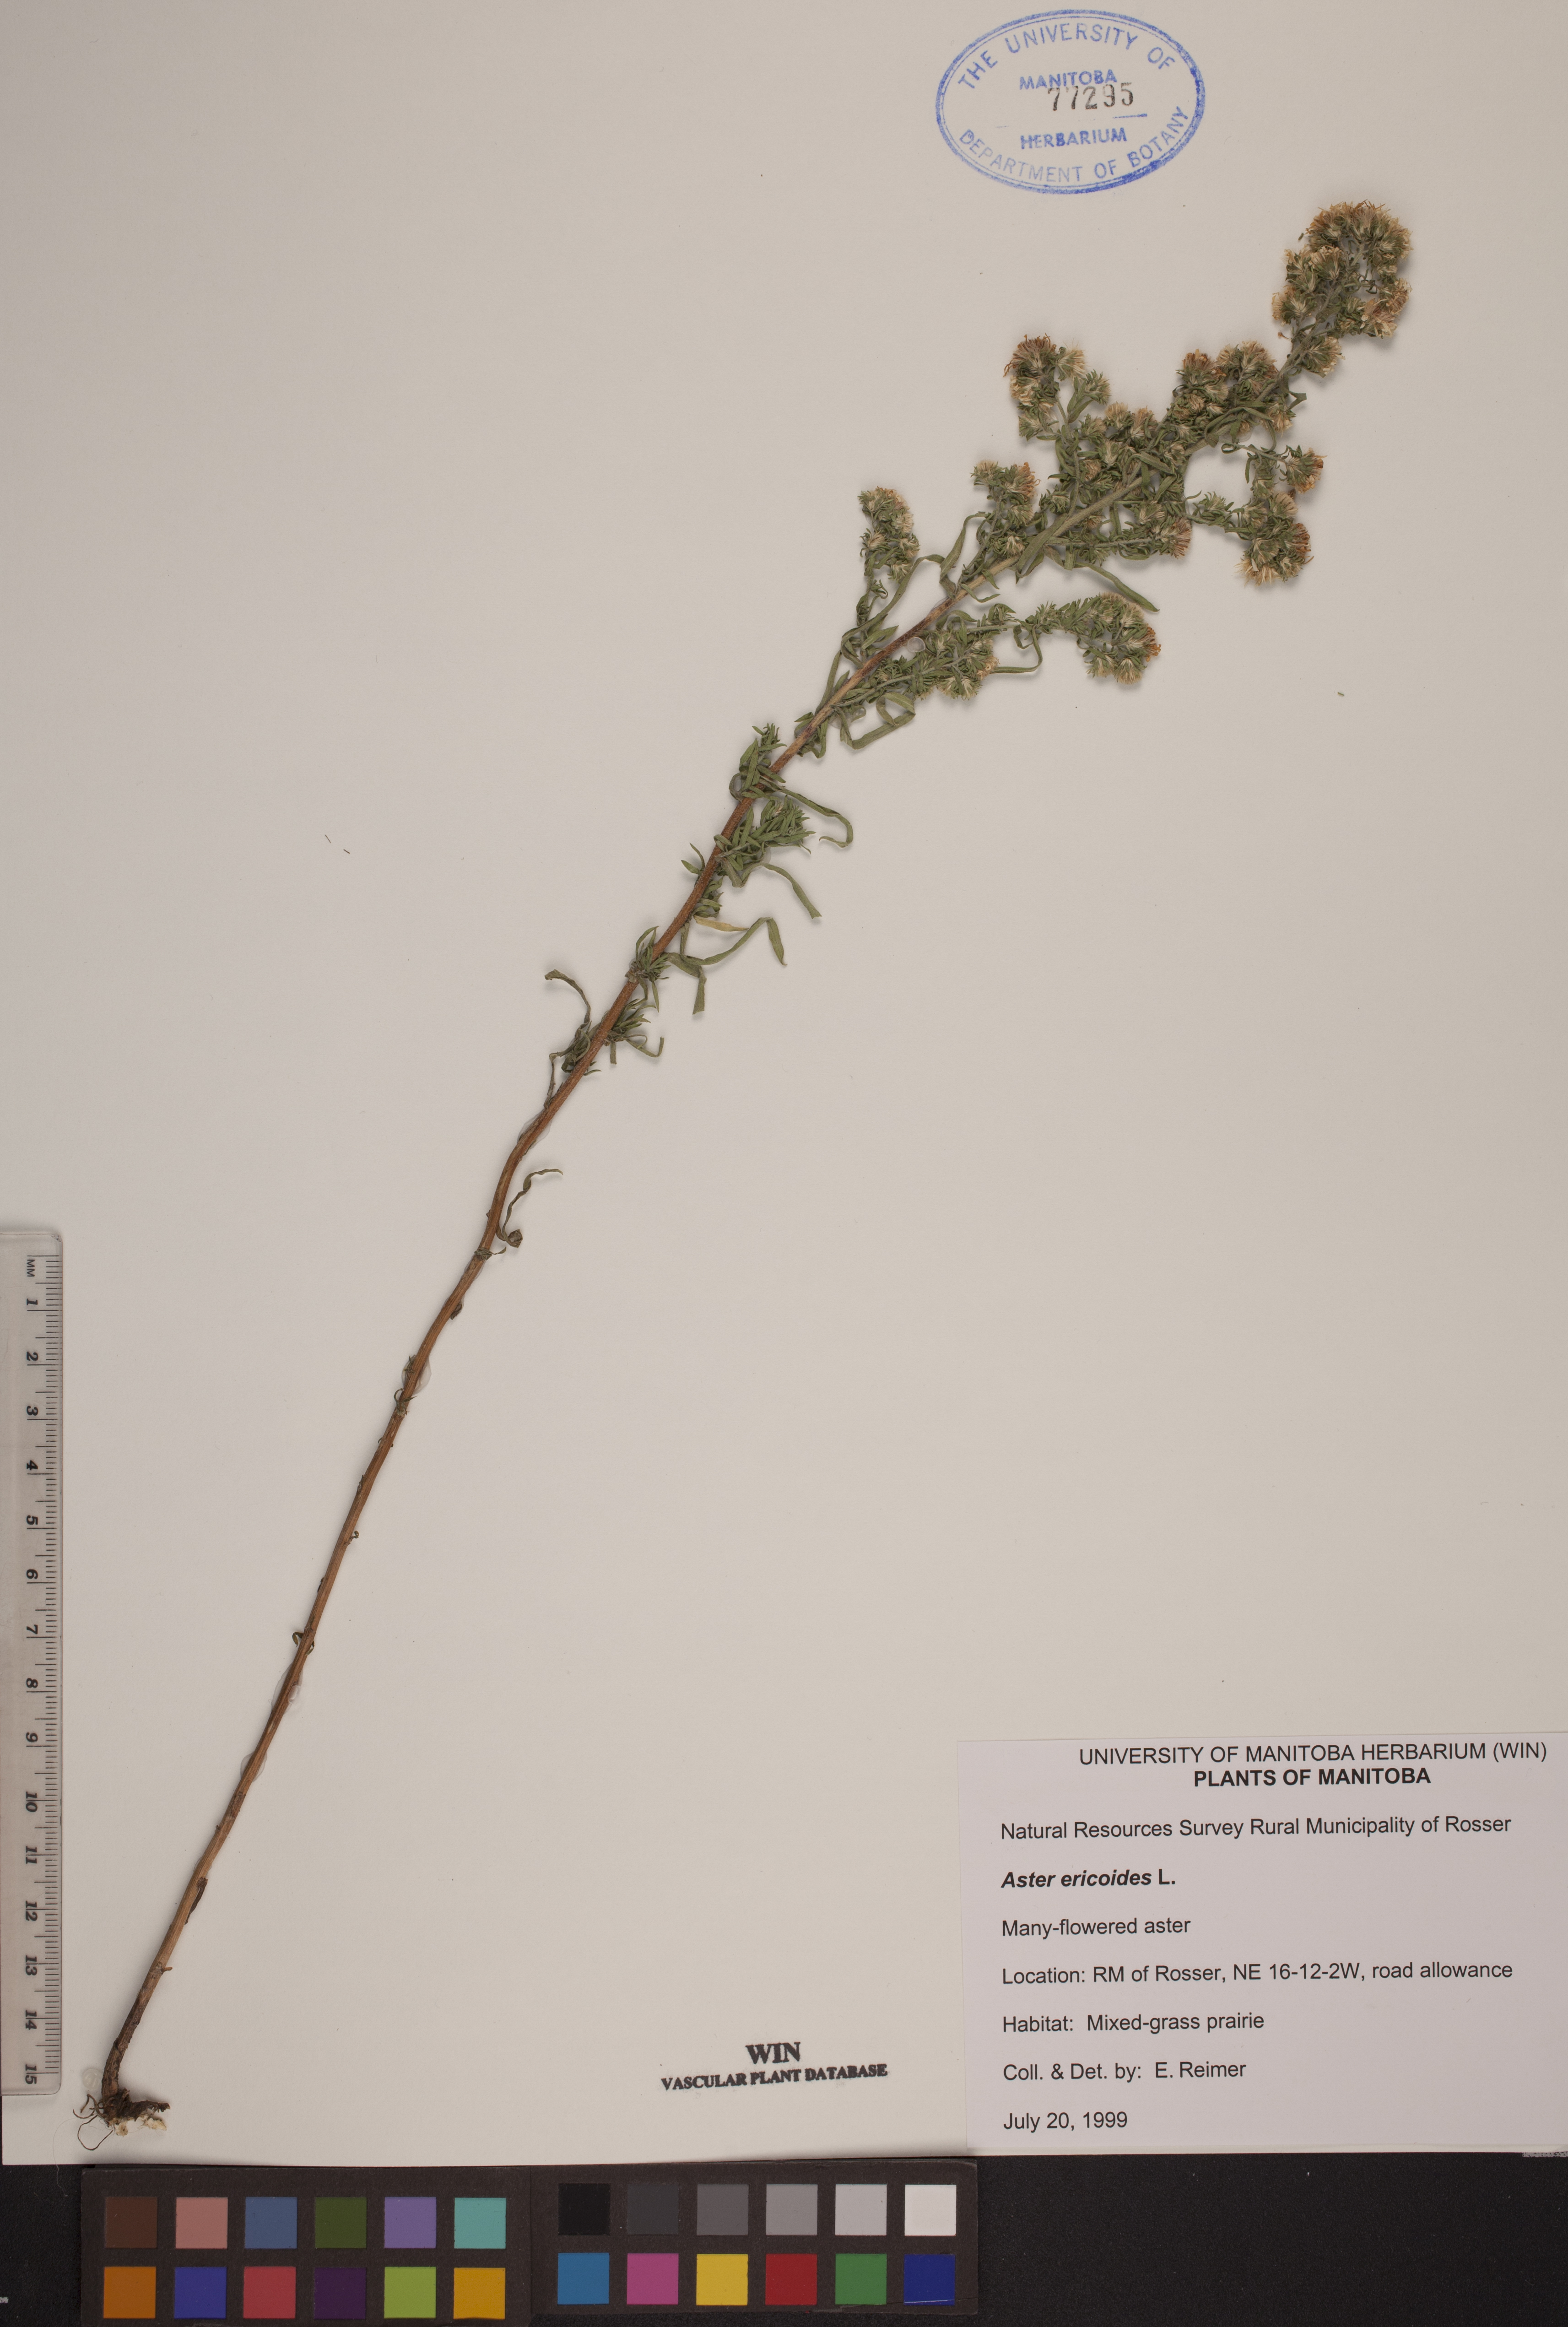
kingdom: Plantae
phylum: Tracheophyta
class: Magnoliopsida
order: Asterales
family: Asteraceae
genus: Symphyotrichum
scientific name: Symphyotrichum ericoides
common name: Heath aster
